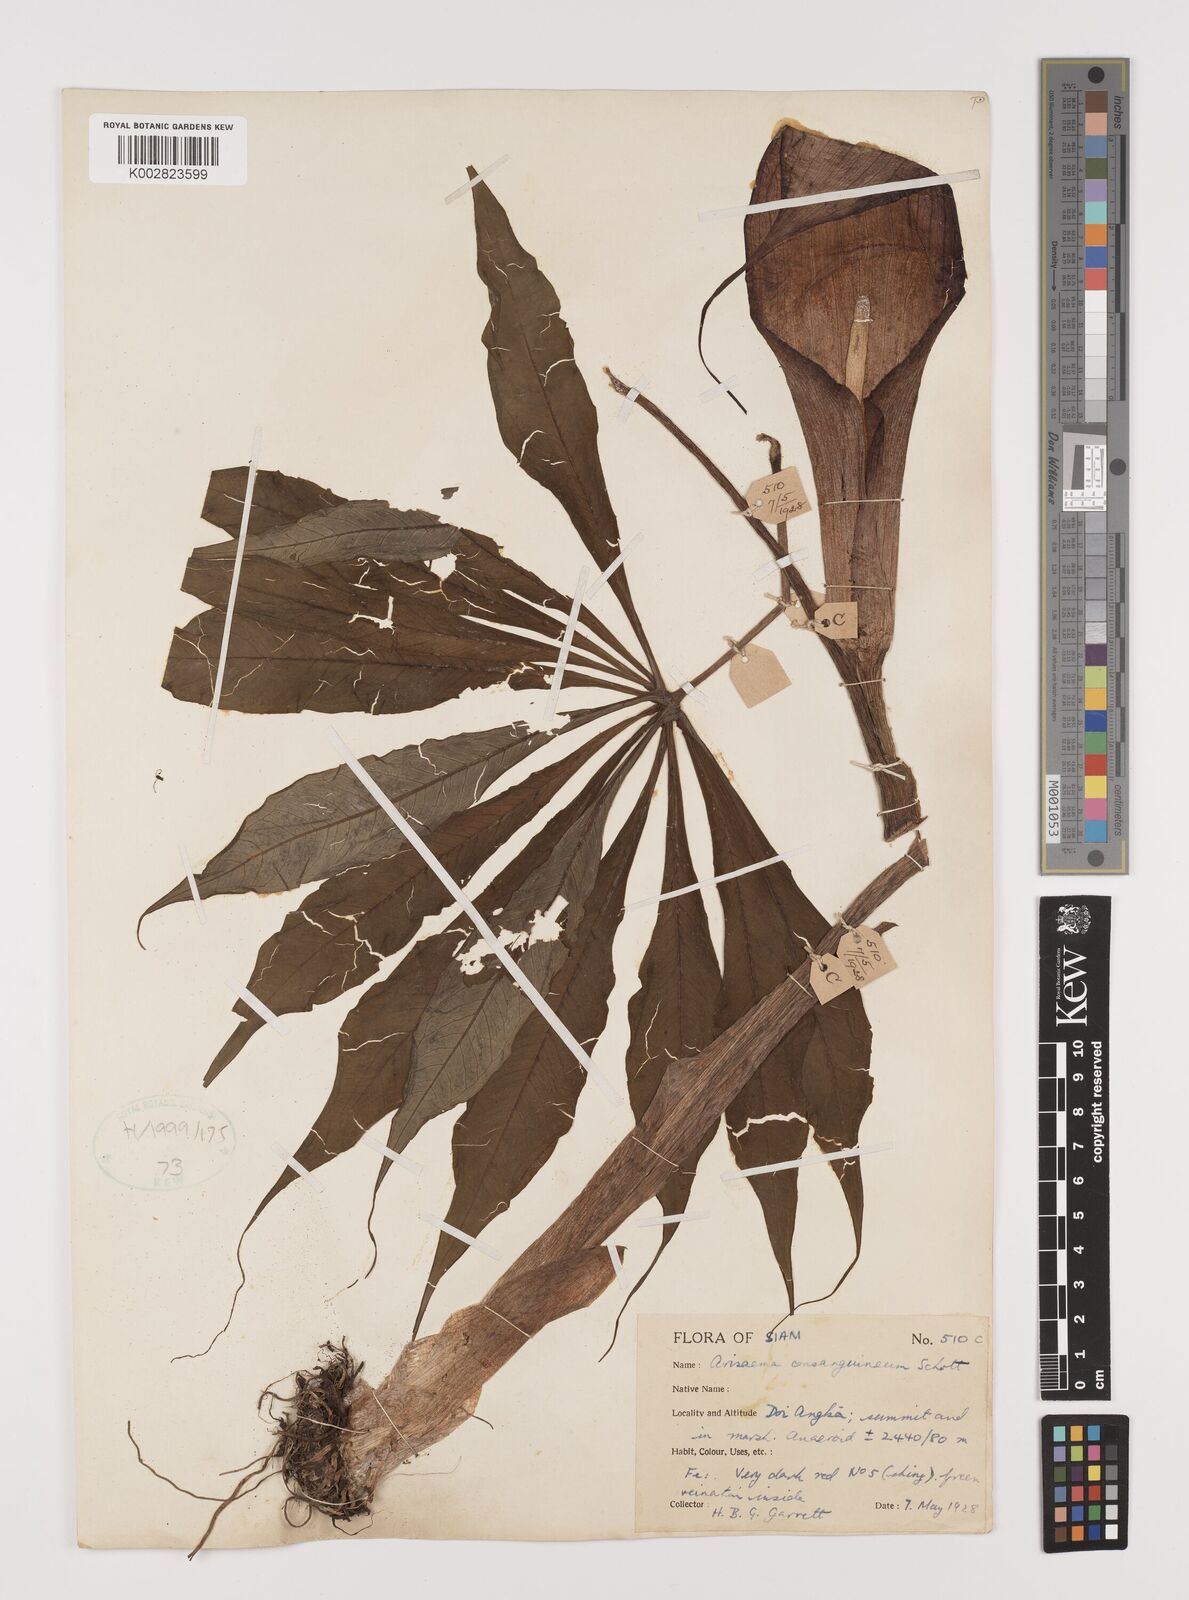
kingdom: Plantae
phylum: Tracheophyta
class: Liliopsida
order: Alismatales
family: Araceae
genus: Arisaema
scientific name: Arisaema consanguineum
